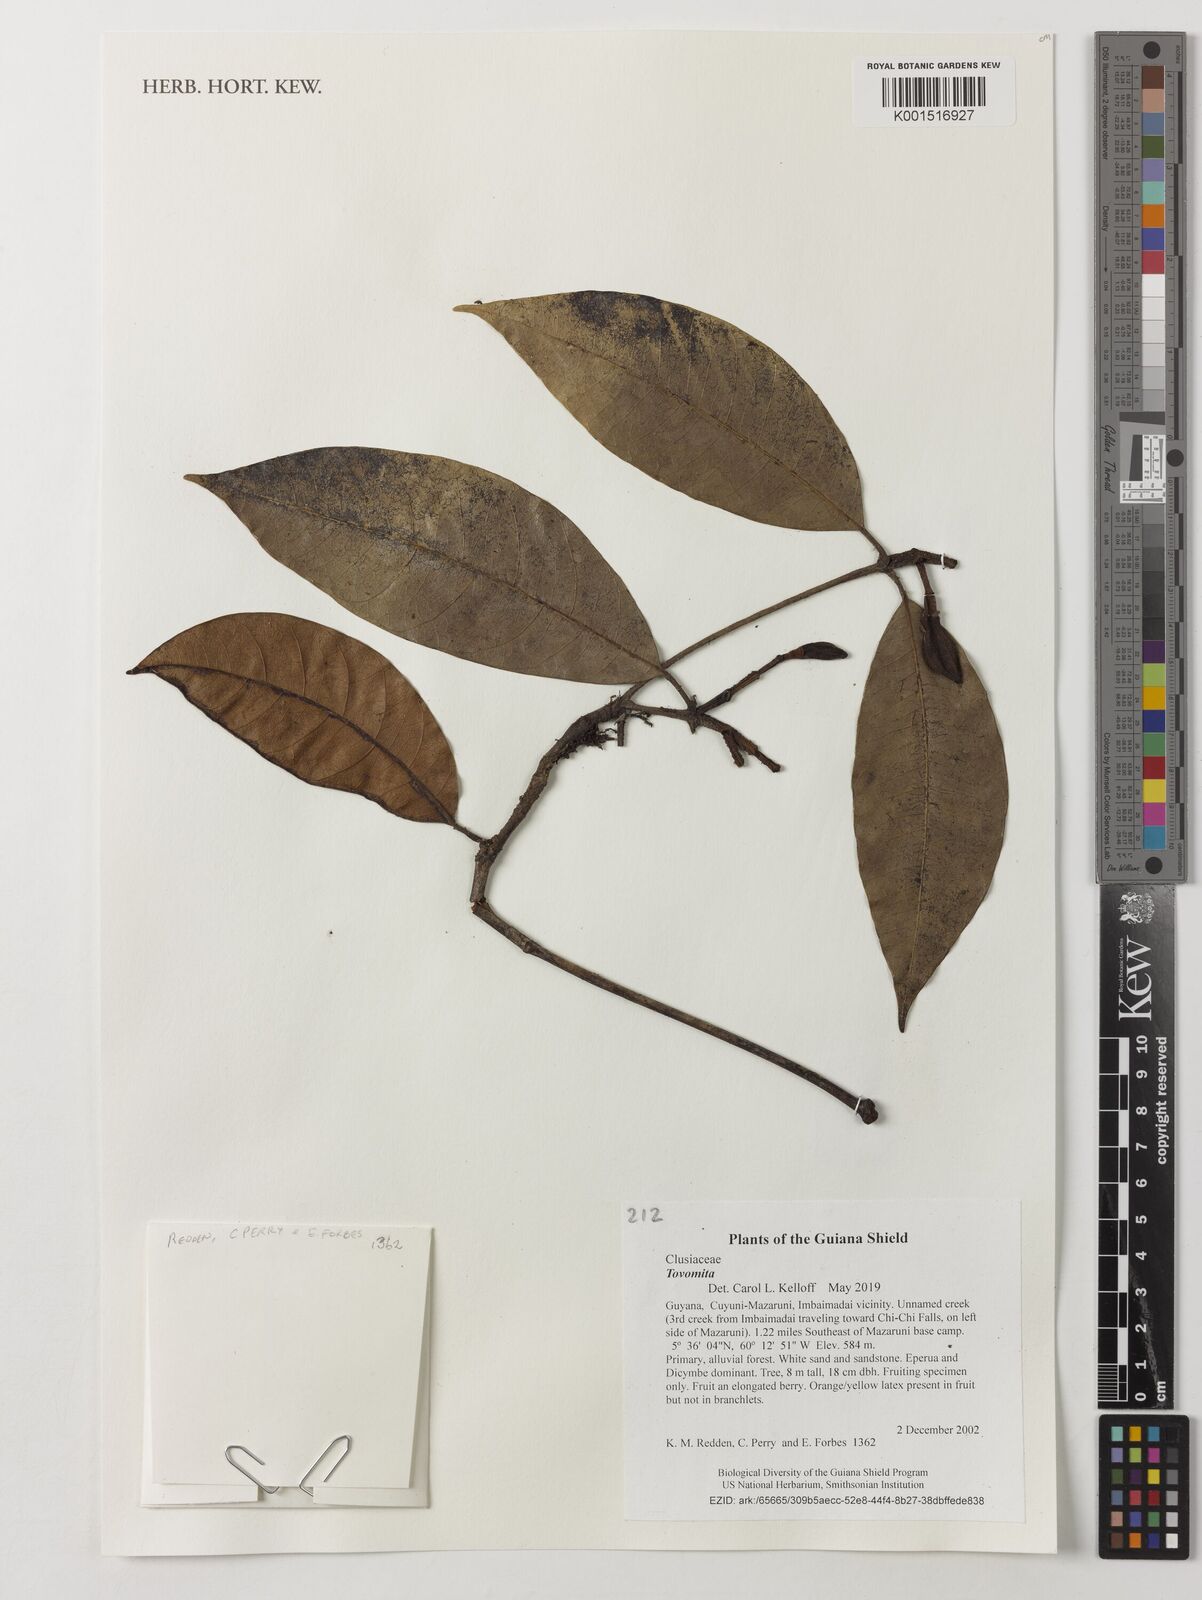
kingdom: Plantae
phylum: Tracheophyta
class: Magnoliopsida
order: Malpighiales
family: Clusiaceae
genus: Tovomita
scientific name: Tovomita
